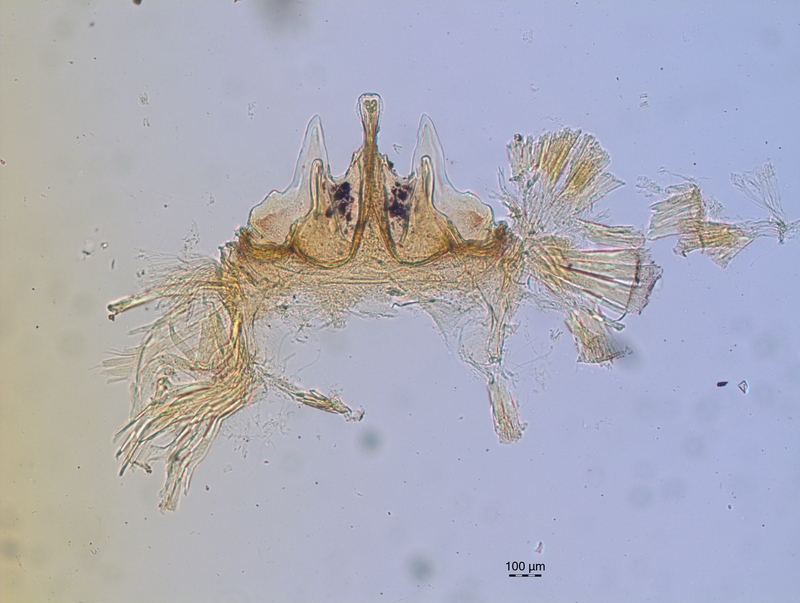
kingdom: Animalia
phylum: Arthropoda
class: Diplopoda
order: Chordeumatida
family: Craspedosomatidae
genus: Craspedosoma
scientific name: Craspedosoma brentanum
